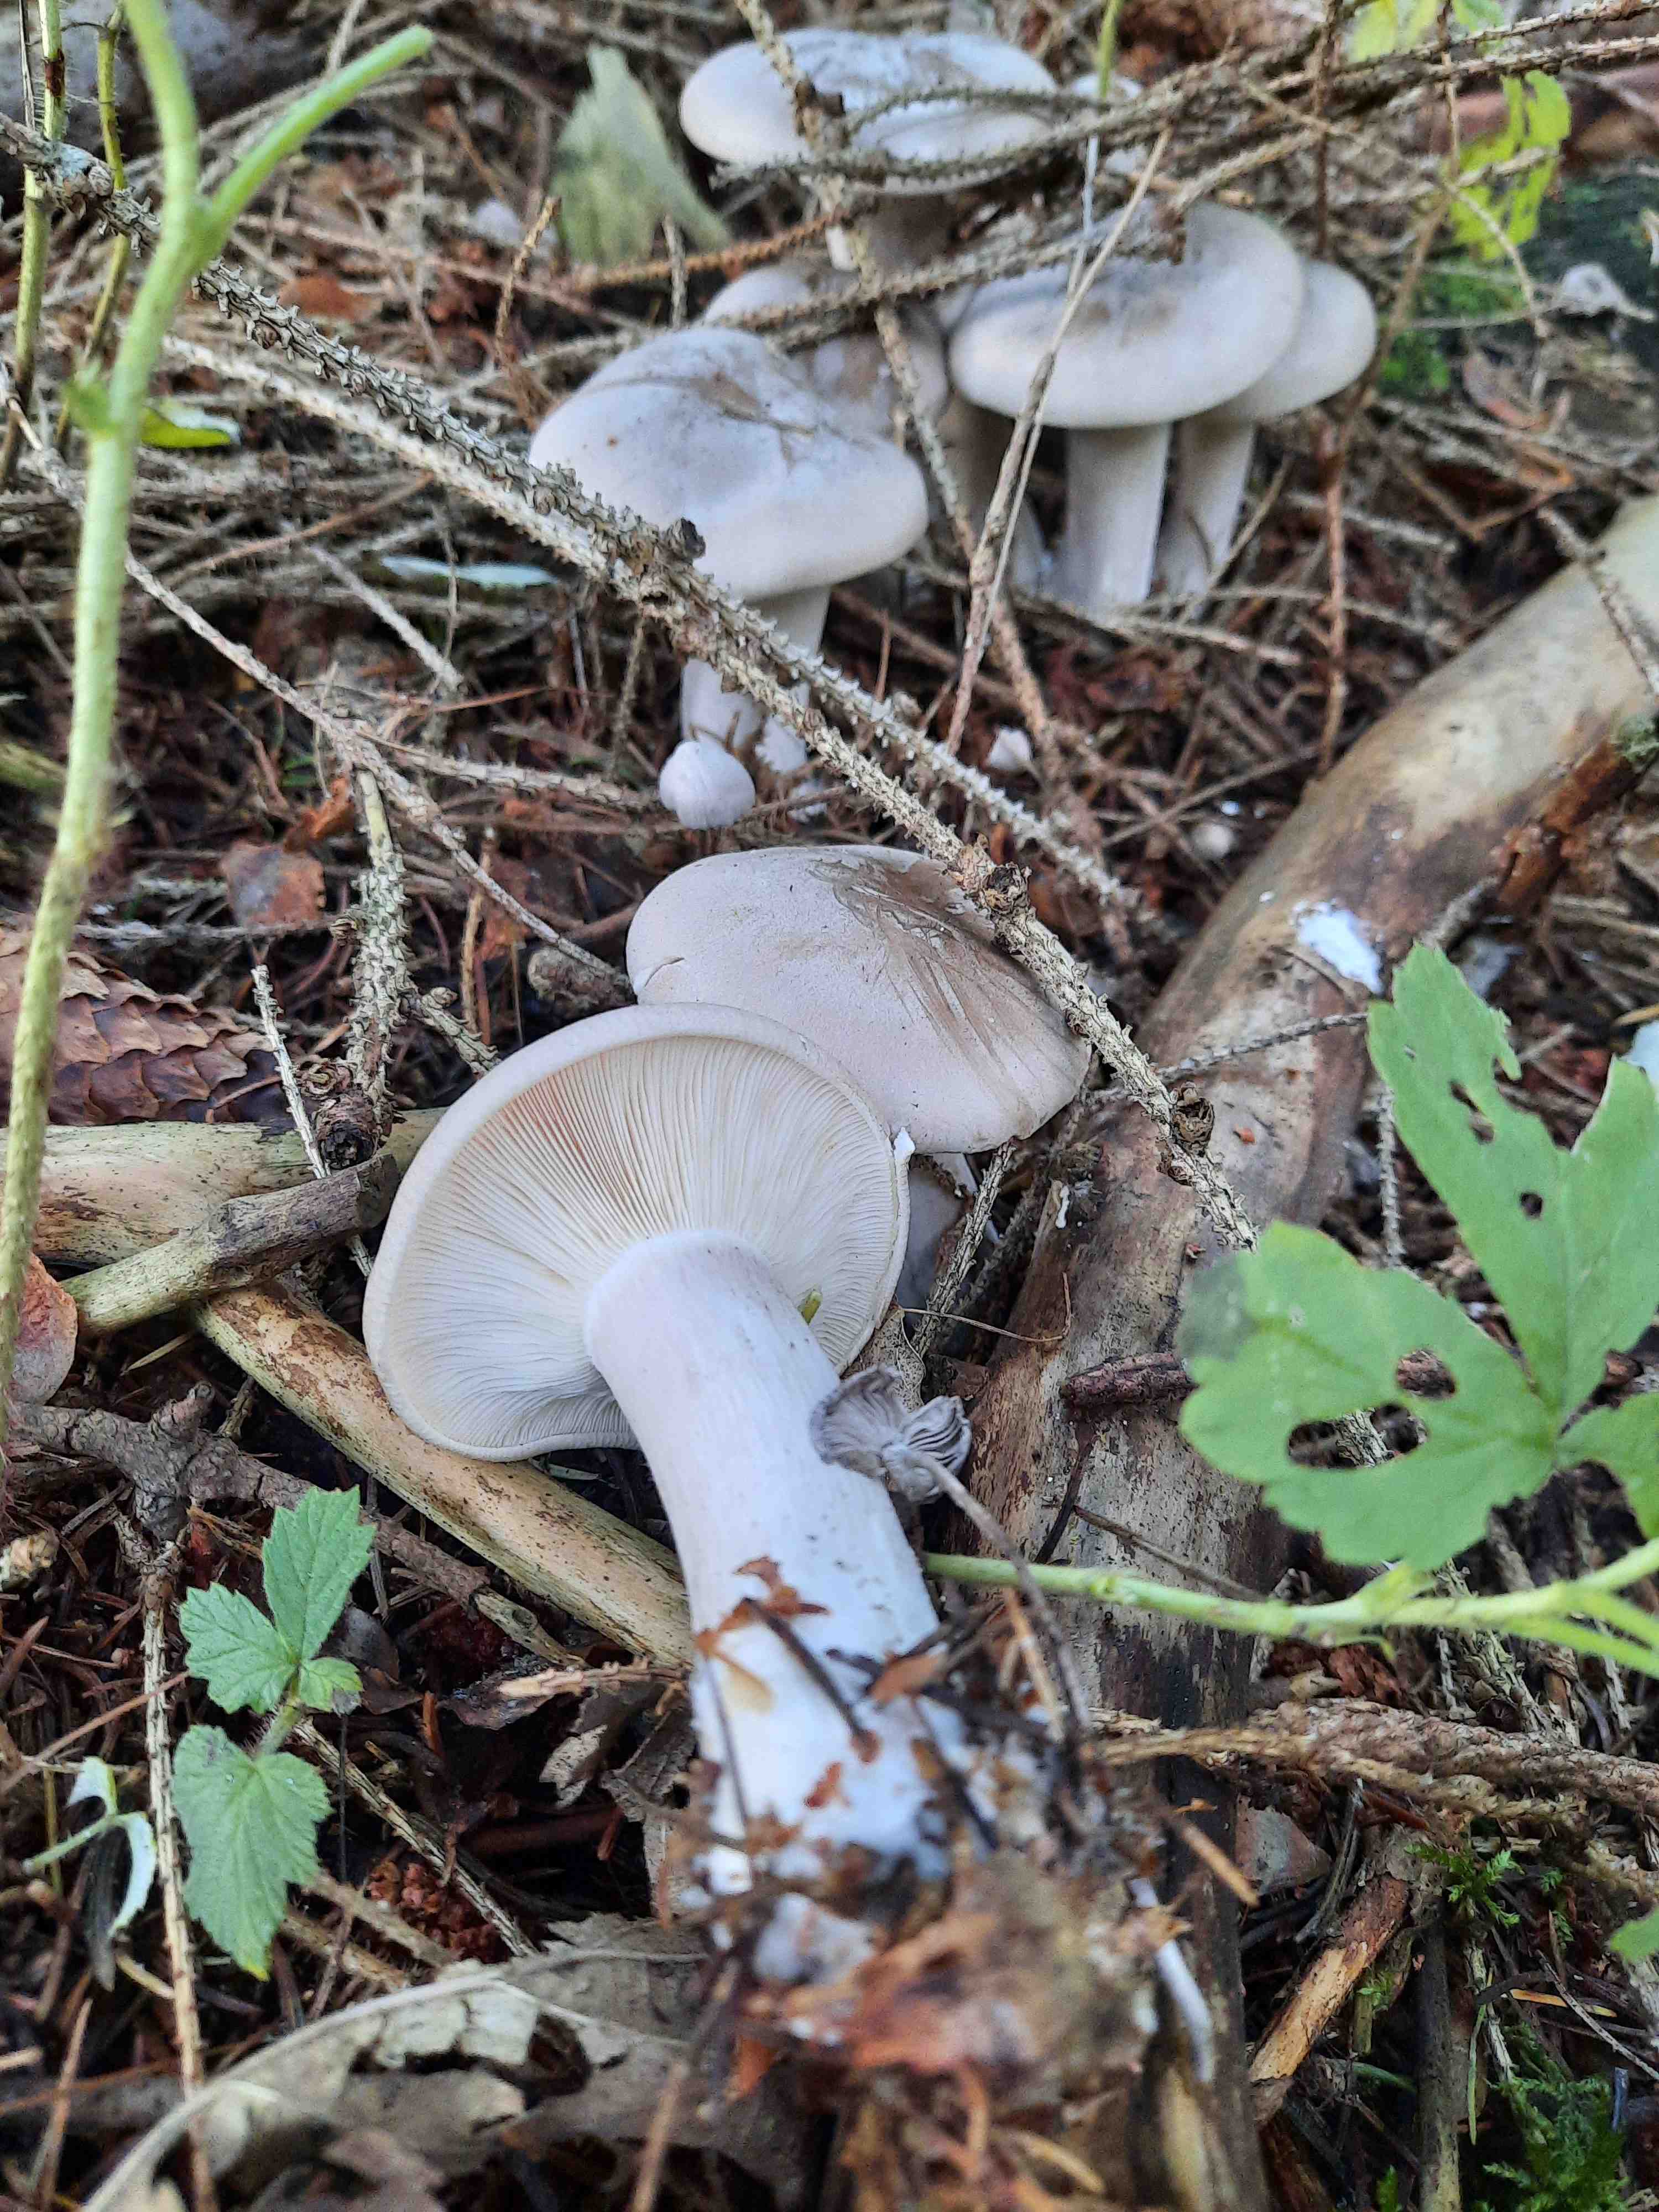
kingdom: Fungi
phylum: Basidiomycota
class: Agaricomycetes
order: Agaricales
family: Tricholomataceae
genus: Clitocybe
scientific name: Clitocybe nebularis
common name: tåge-tragthat
